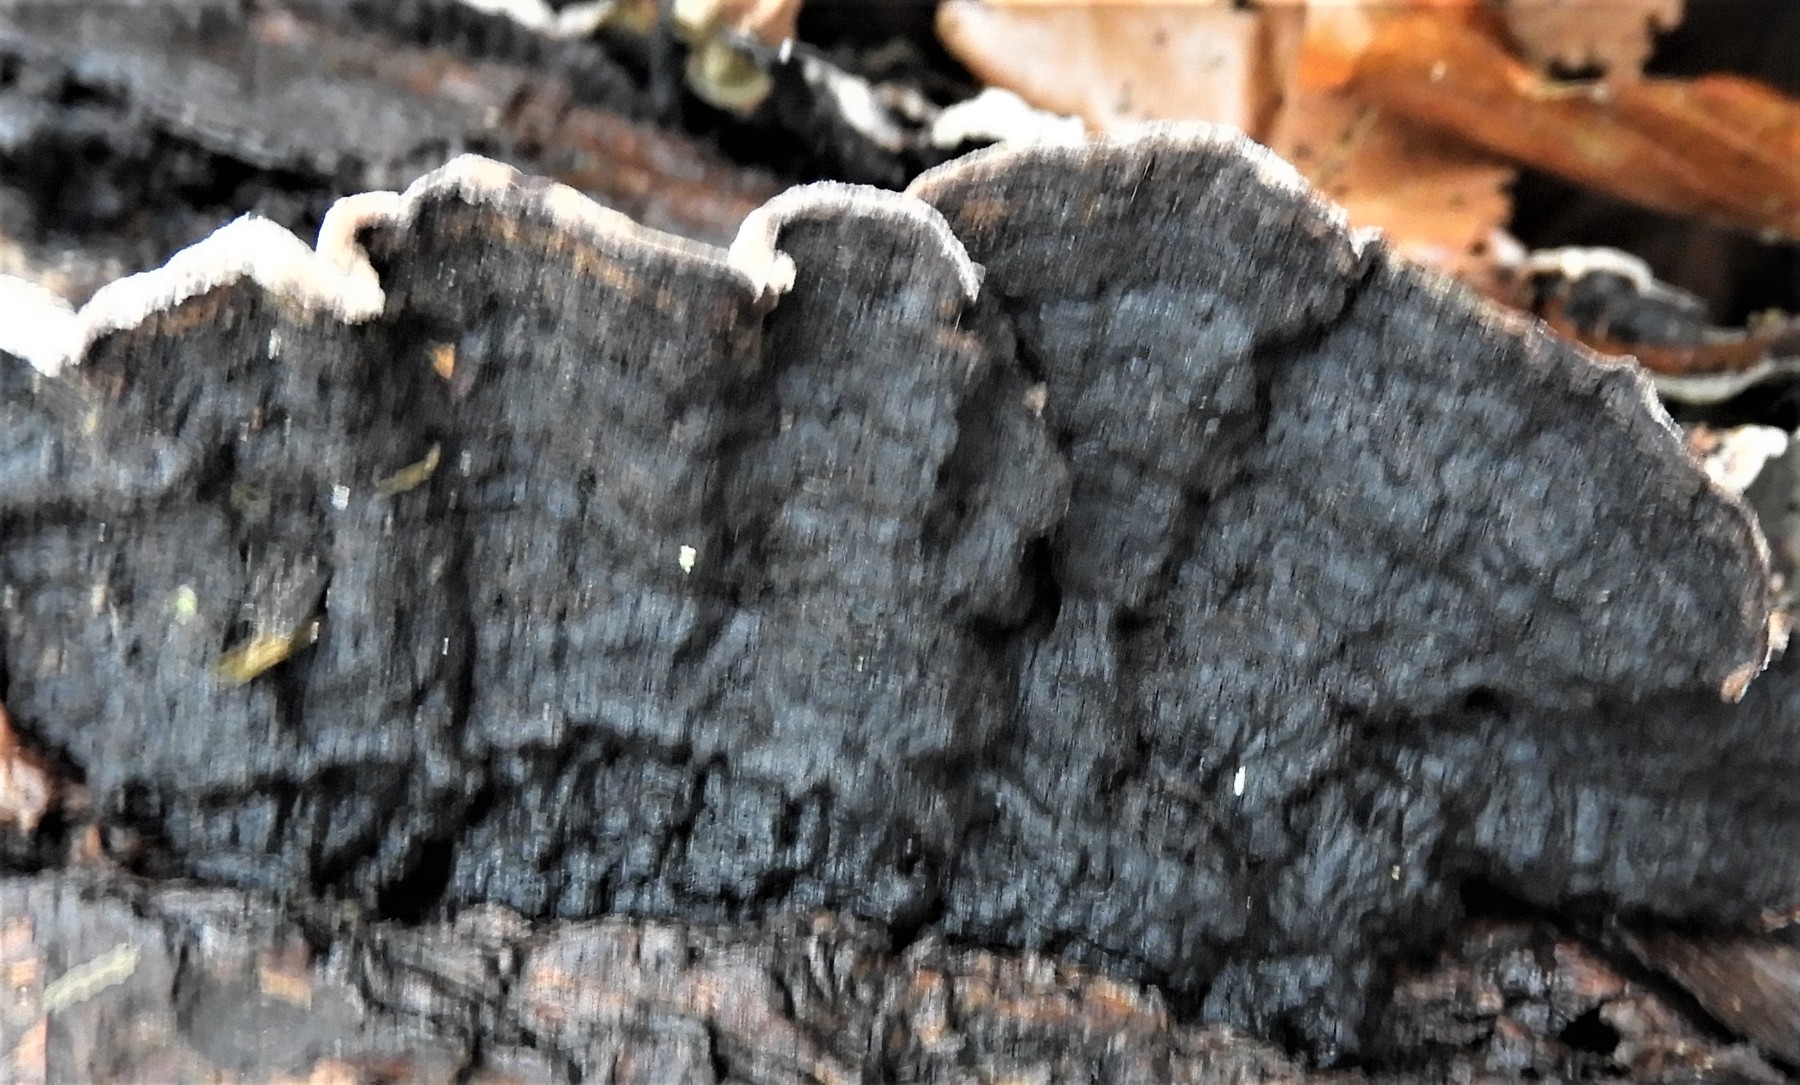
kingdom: Fungi
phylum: Basidiomycota
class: Agaricomycetes
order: Polyporales
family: Polyporaceae
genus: Podofomes
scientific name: Podofomes mollis
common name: blød begporesvamp
